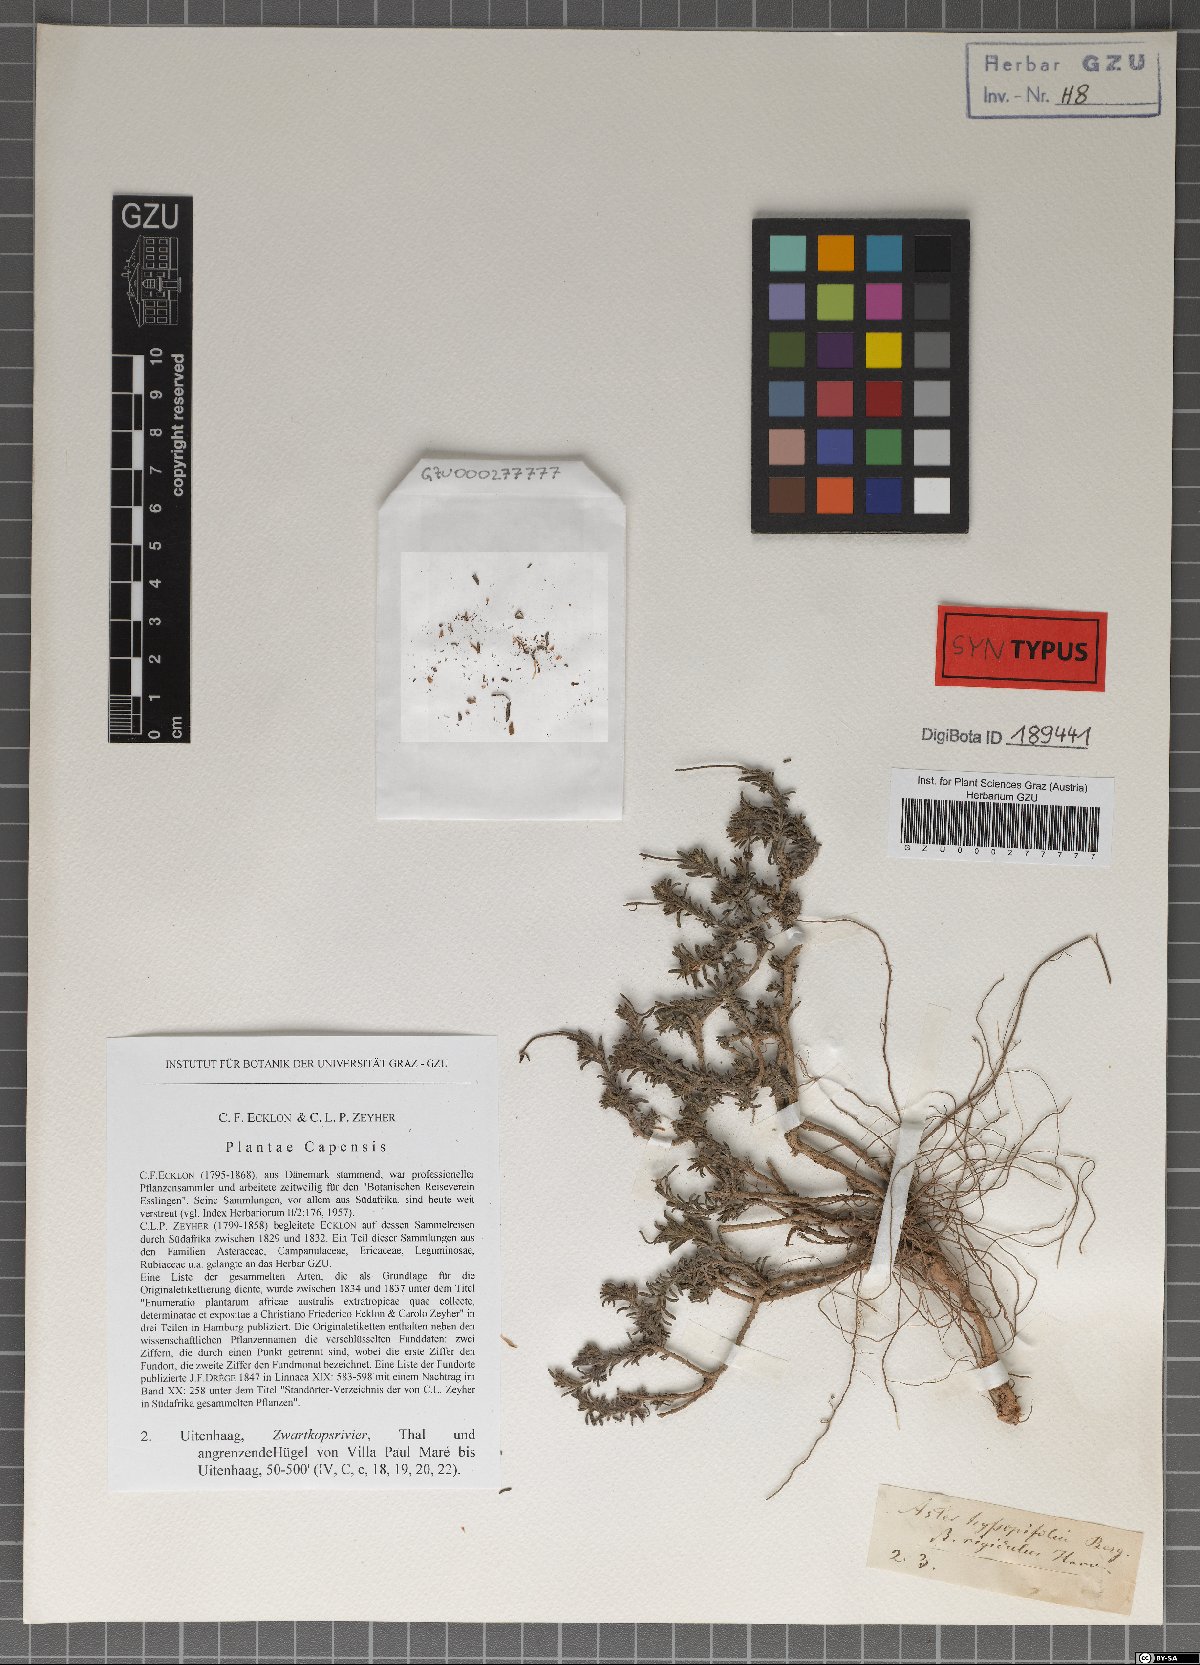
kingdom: Plantae
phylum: Tracheophyta
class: Magnoliopsida
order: Asterales
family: Asteraceae
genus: Chrysocoma
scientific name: Chrysocoma rigidula
